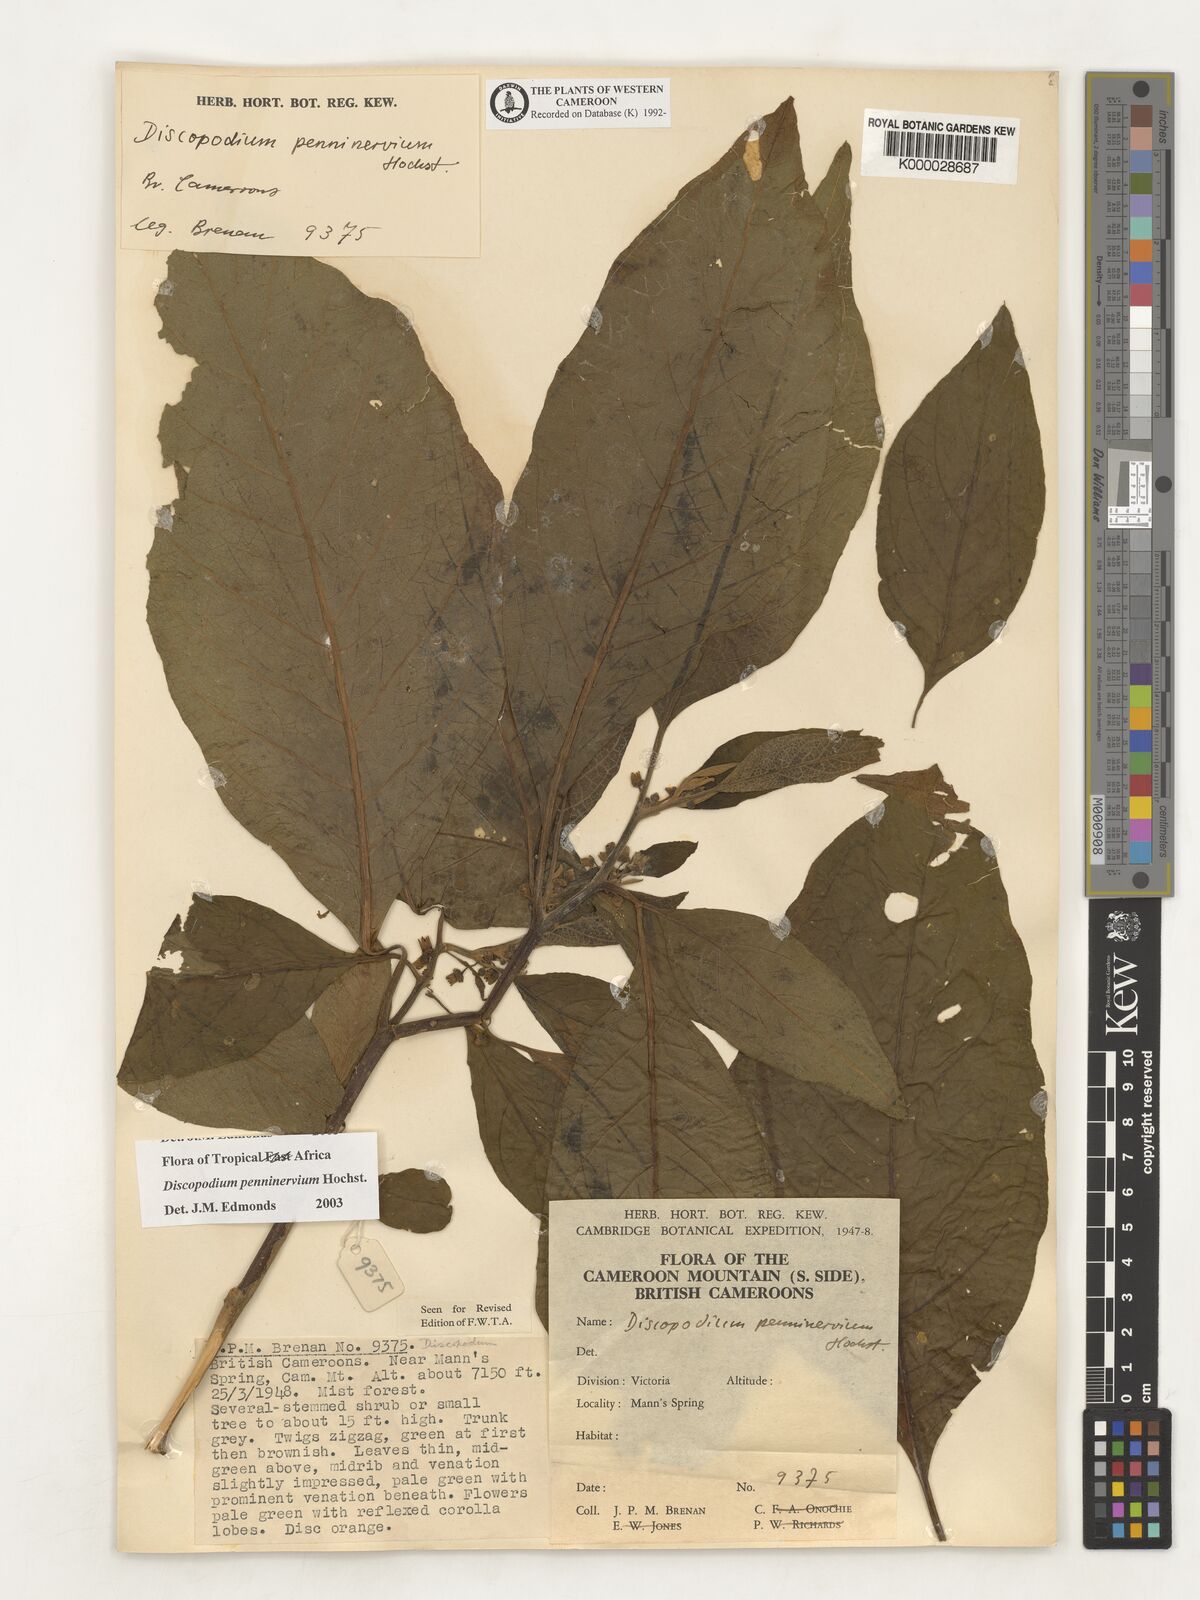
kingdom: Plantae
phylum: Tracheophyta
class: Magnoliopsida
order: Solanales
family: Solanaceae
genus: Discopodium
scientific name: Discopodium penninervium
